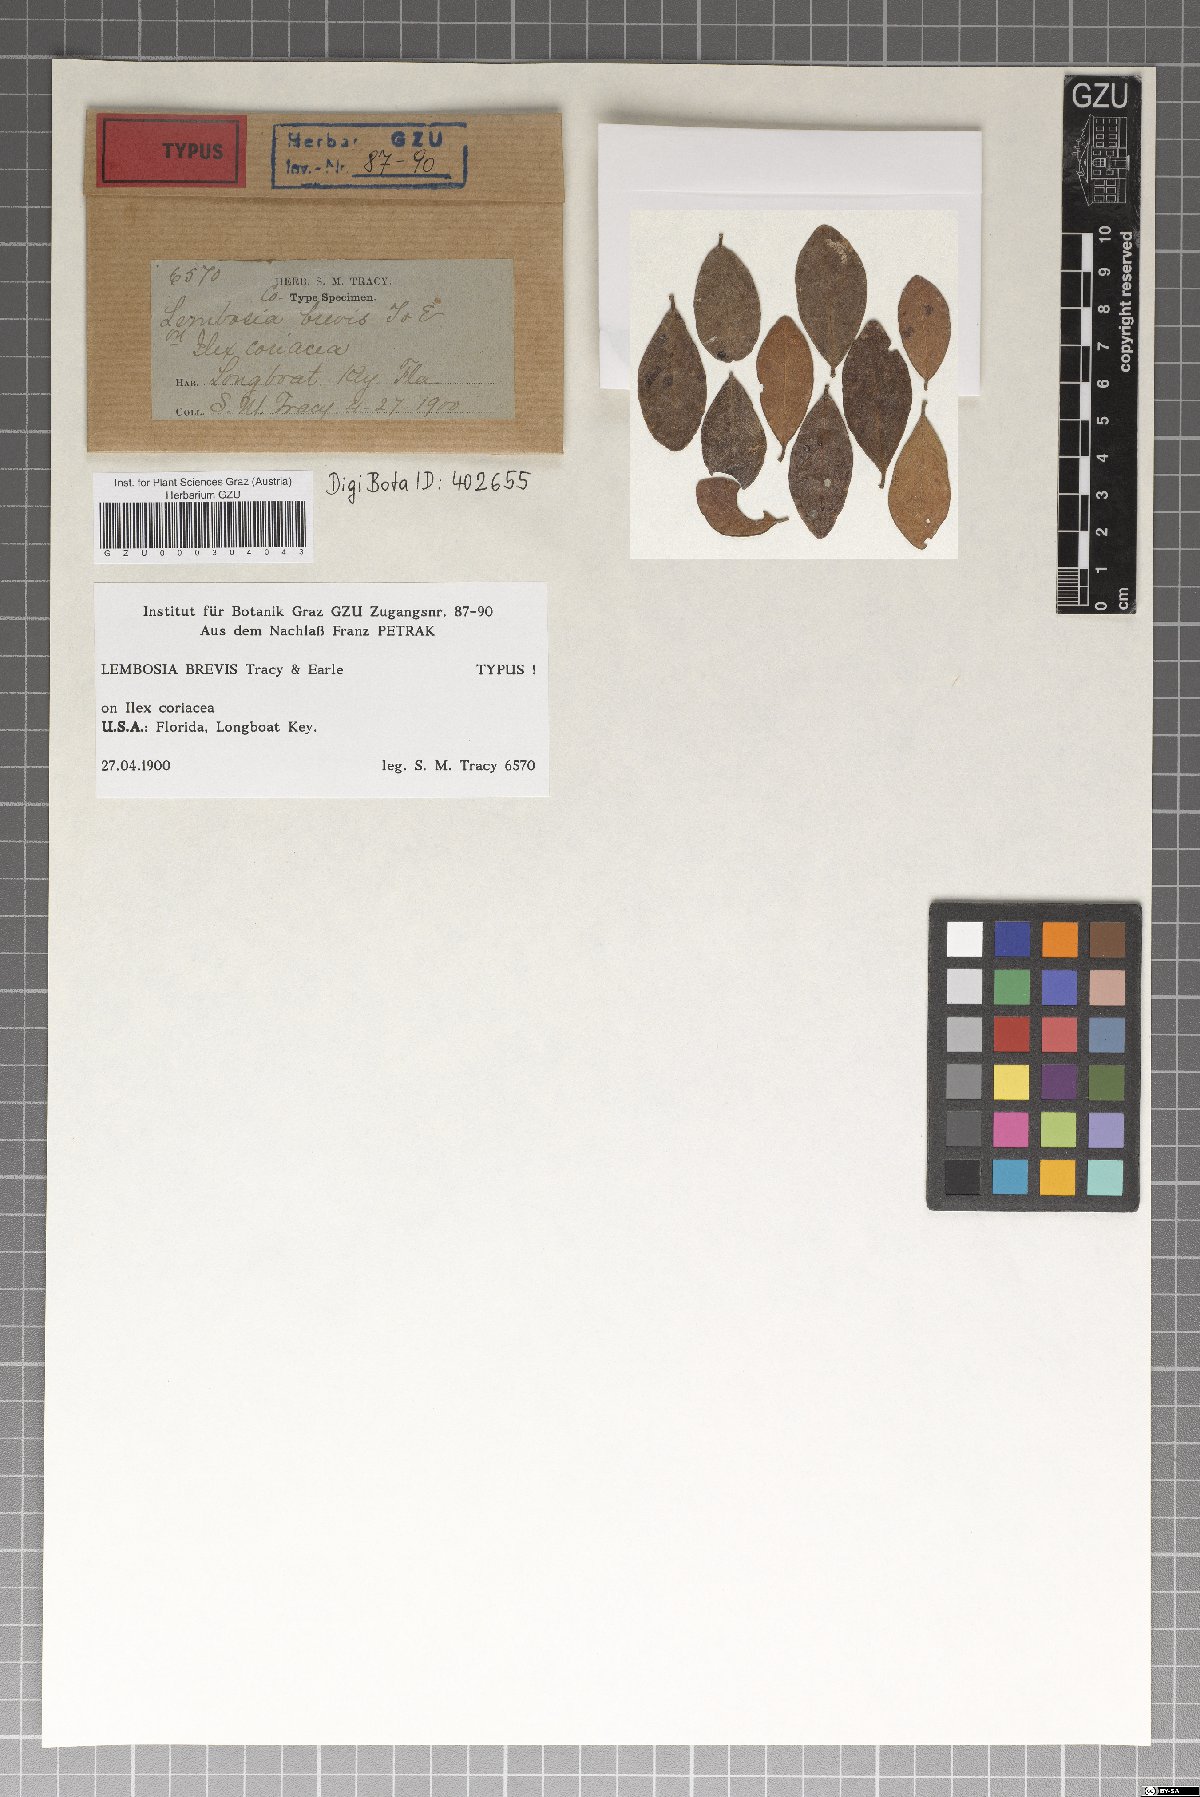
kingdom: Fungi
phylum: Ascomycota
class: Dothideomycetes
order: Asterinales
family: Asterinaceae
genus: Lembosia
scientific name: Lembosia
